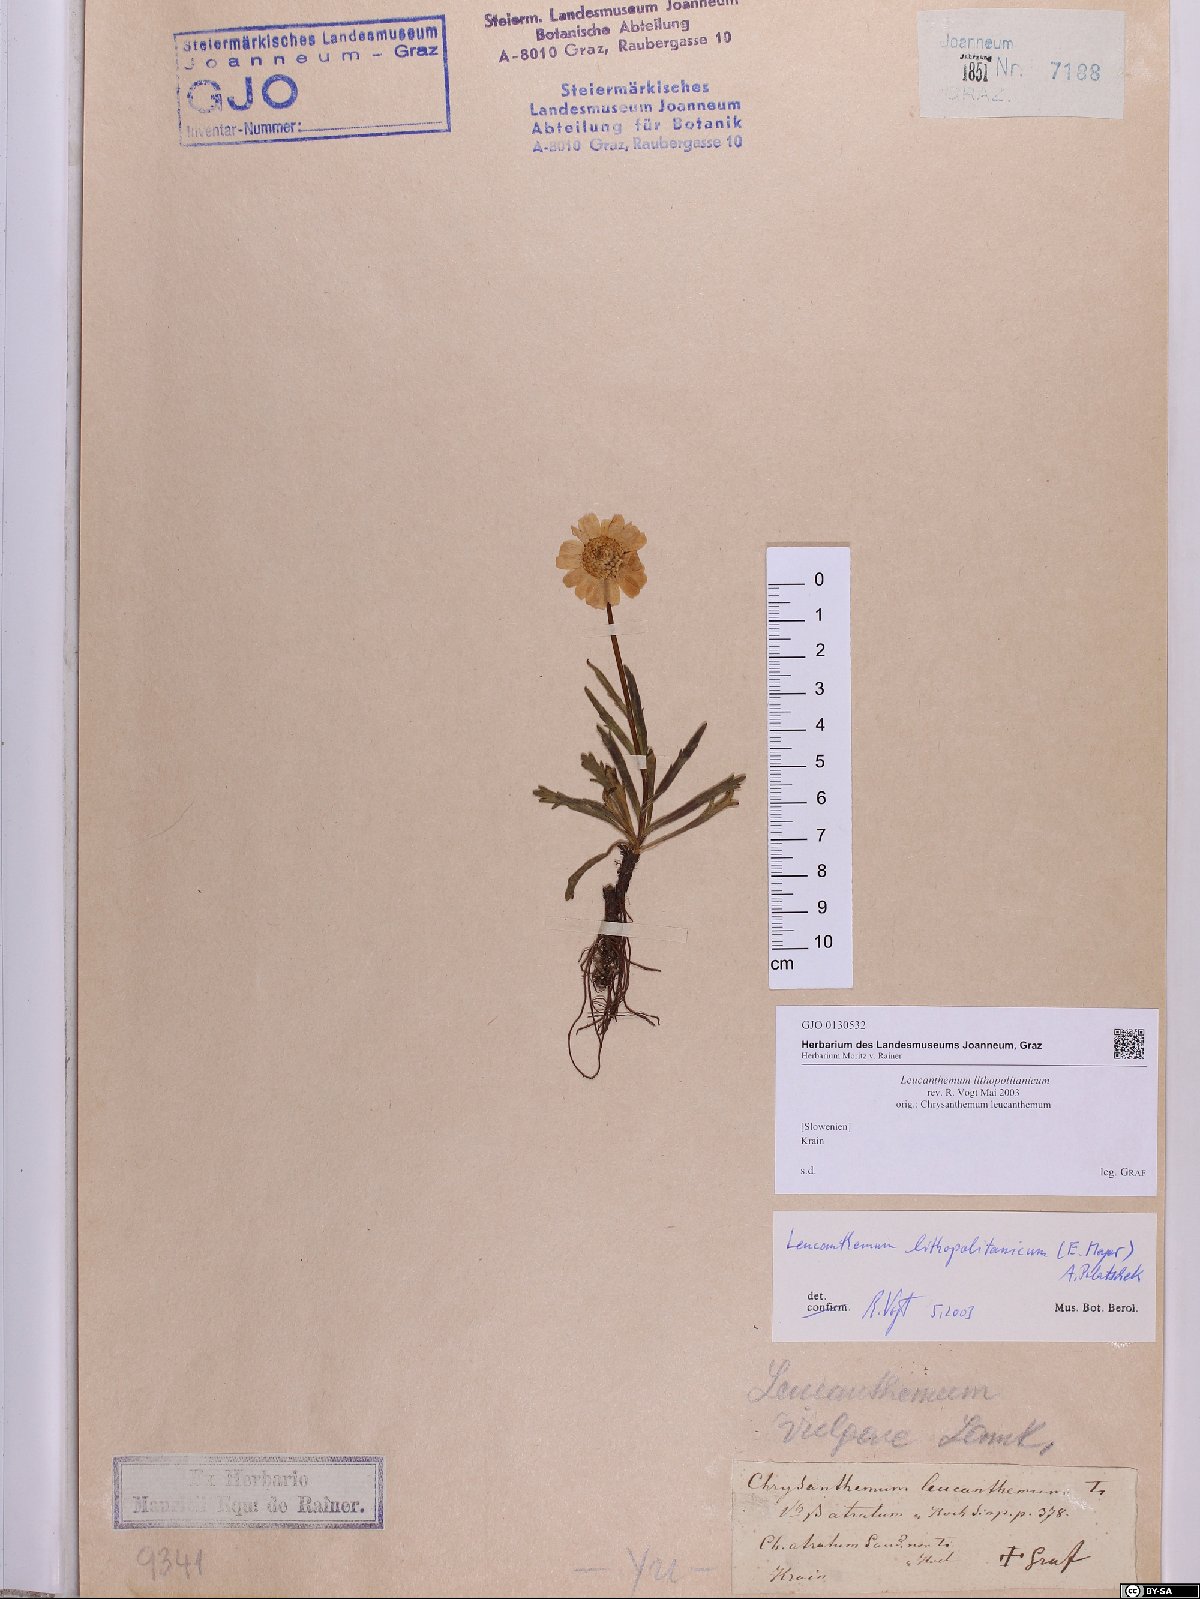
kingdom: Plantae
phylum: Tracheophyta
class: Magnoliopsida
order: Asterales
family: Asteraceae
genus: Leucanthemum
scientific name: Leucanthemum lithopolitanicum
